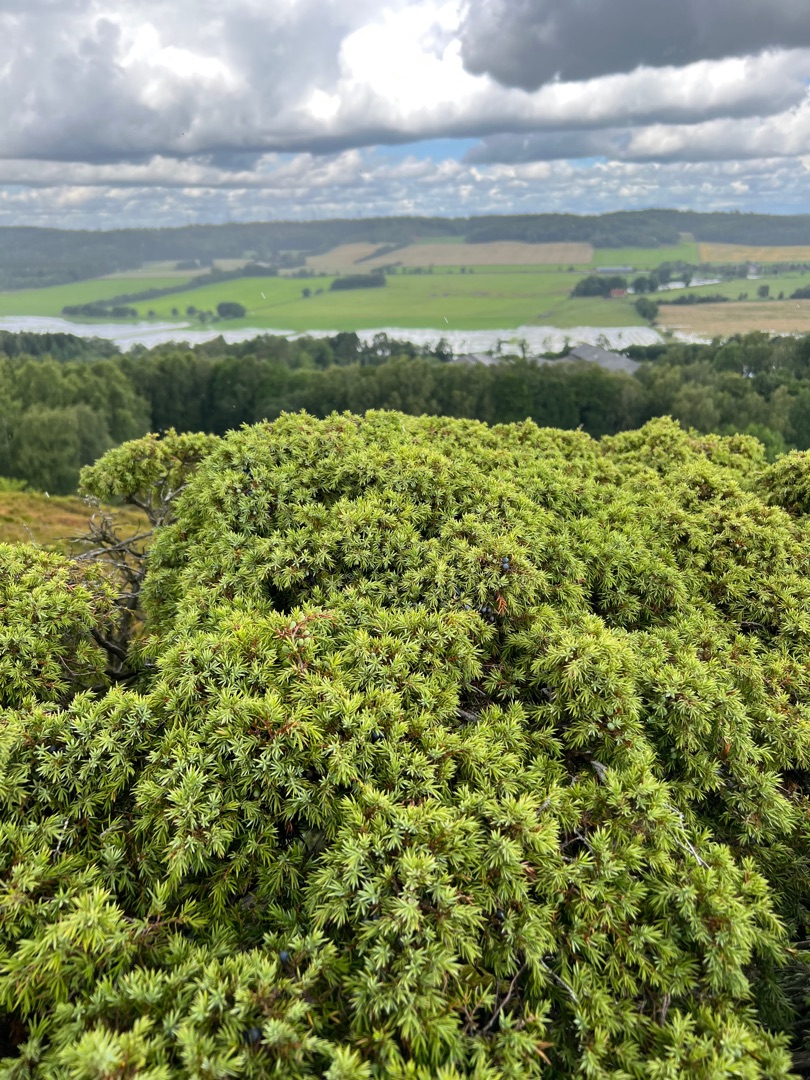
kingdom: Plantae
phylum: Tracheophyta
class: Pinopsida
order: Pinales
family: Cupressaceae
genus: Juniperus
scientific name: Juniperus communis
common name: Almindelig ene
